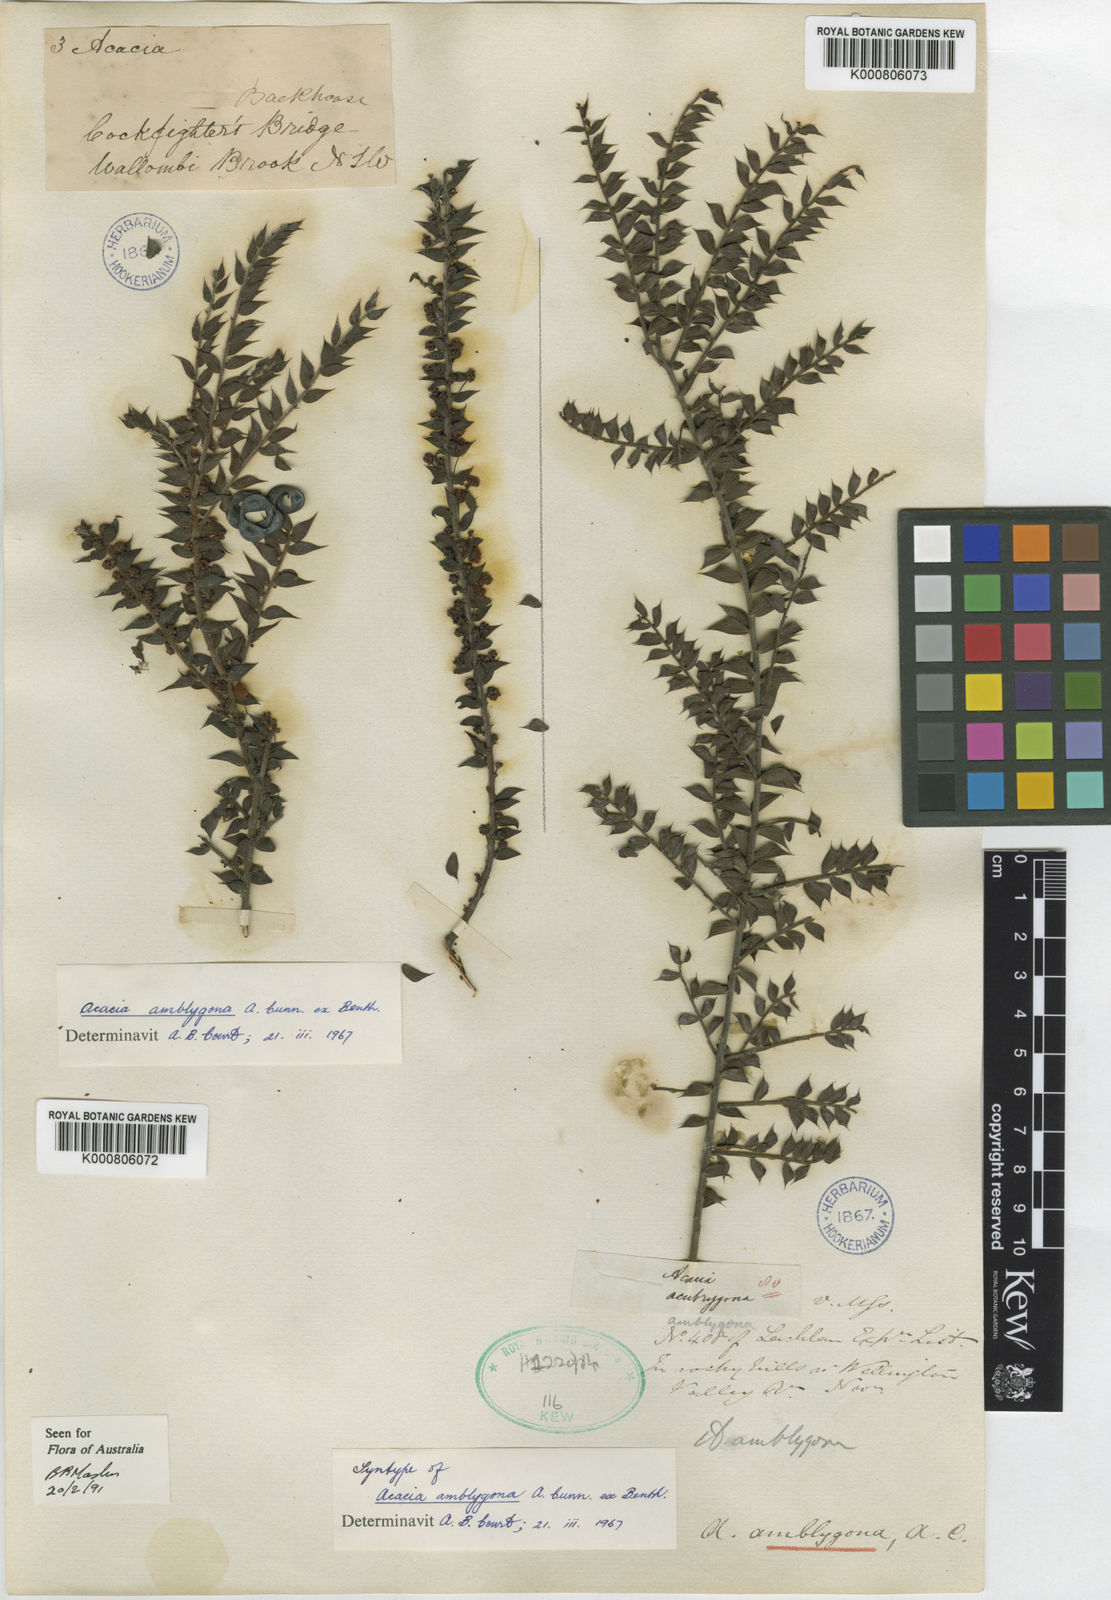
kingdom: Plantae
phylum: Tracheophyta
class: Magnoliopsida
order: Fabales
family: Fabaceae
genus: Acacia
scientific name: Acacia amblygona
